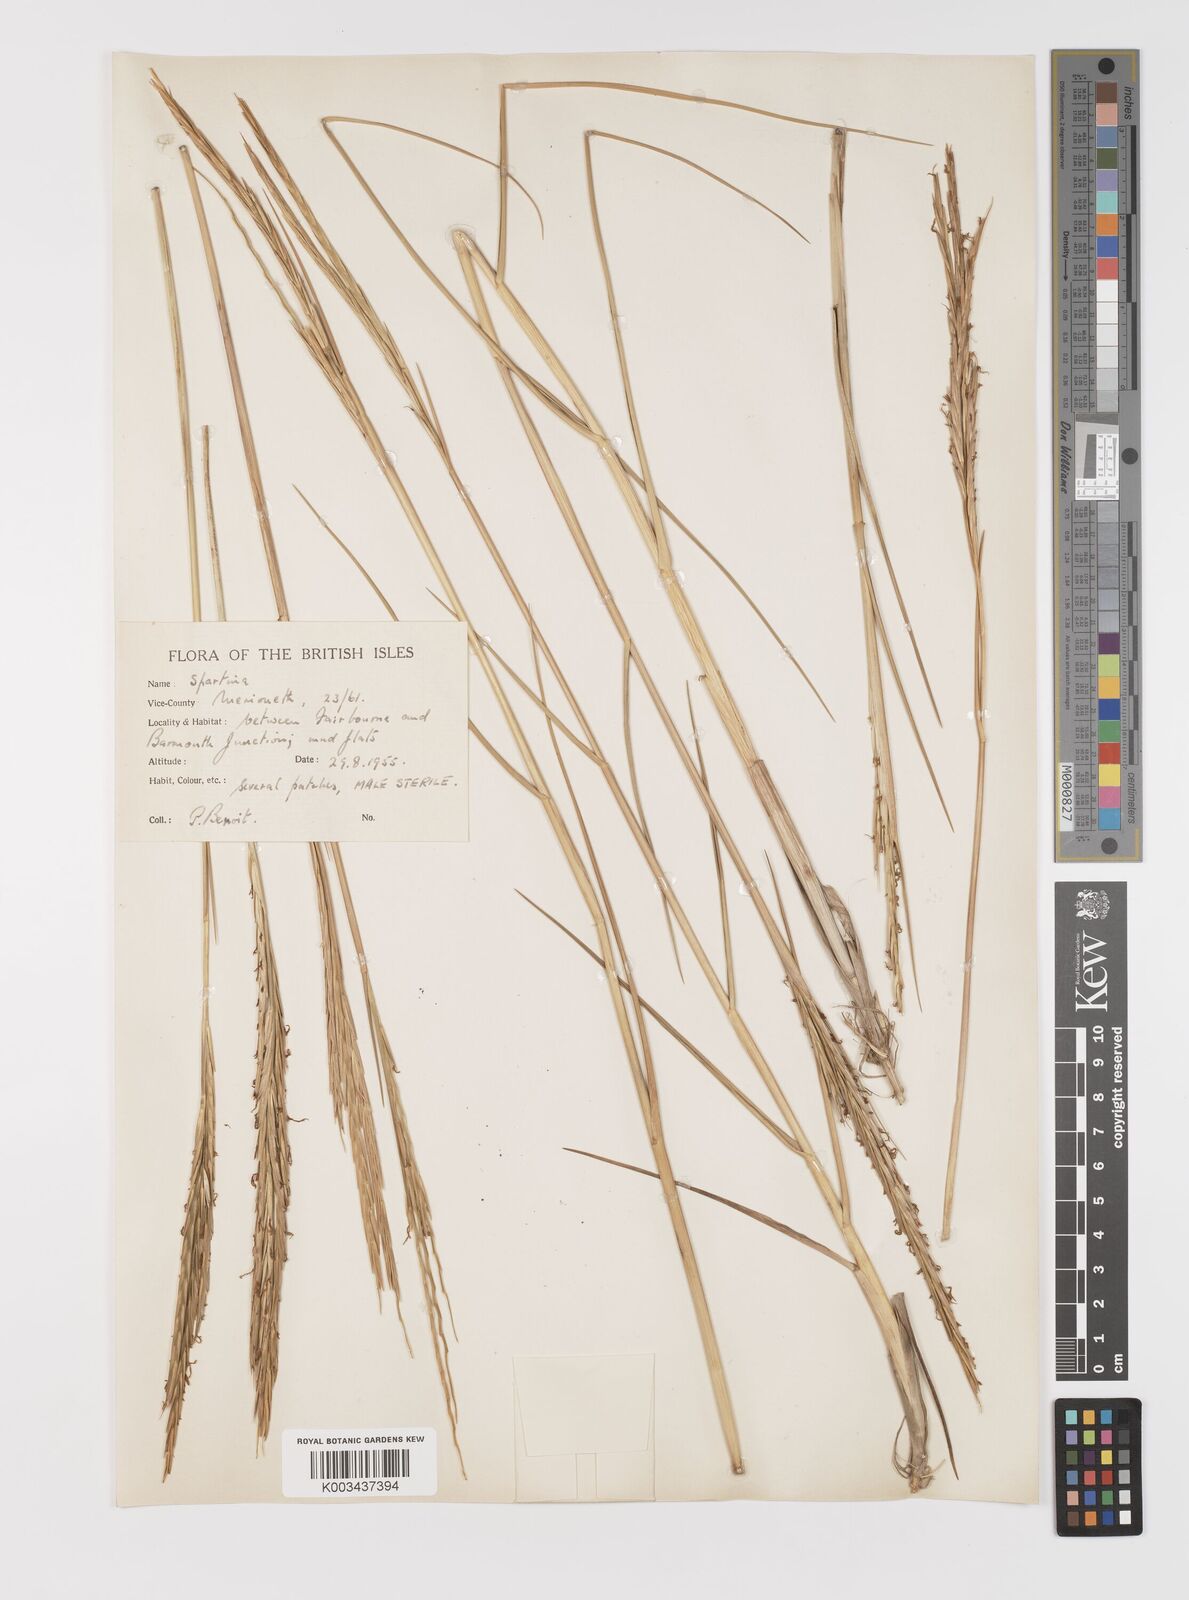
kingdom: Plantae
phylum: Tracheophyta
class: Liliopsida
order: Poales
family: Poaceae
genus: Sporobolus
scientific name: Sporobolus townsendii
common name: Townsend's cordgrass
